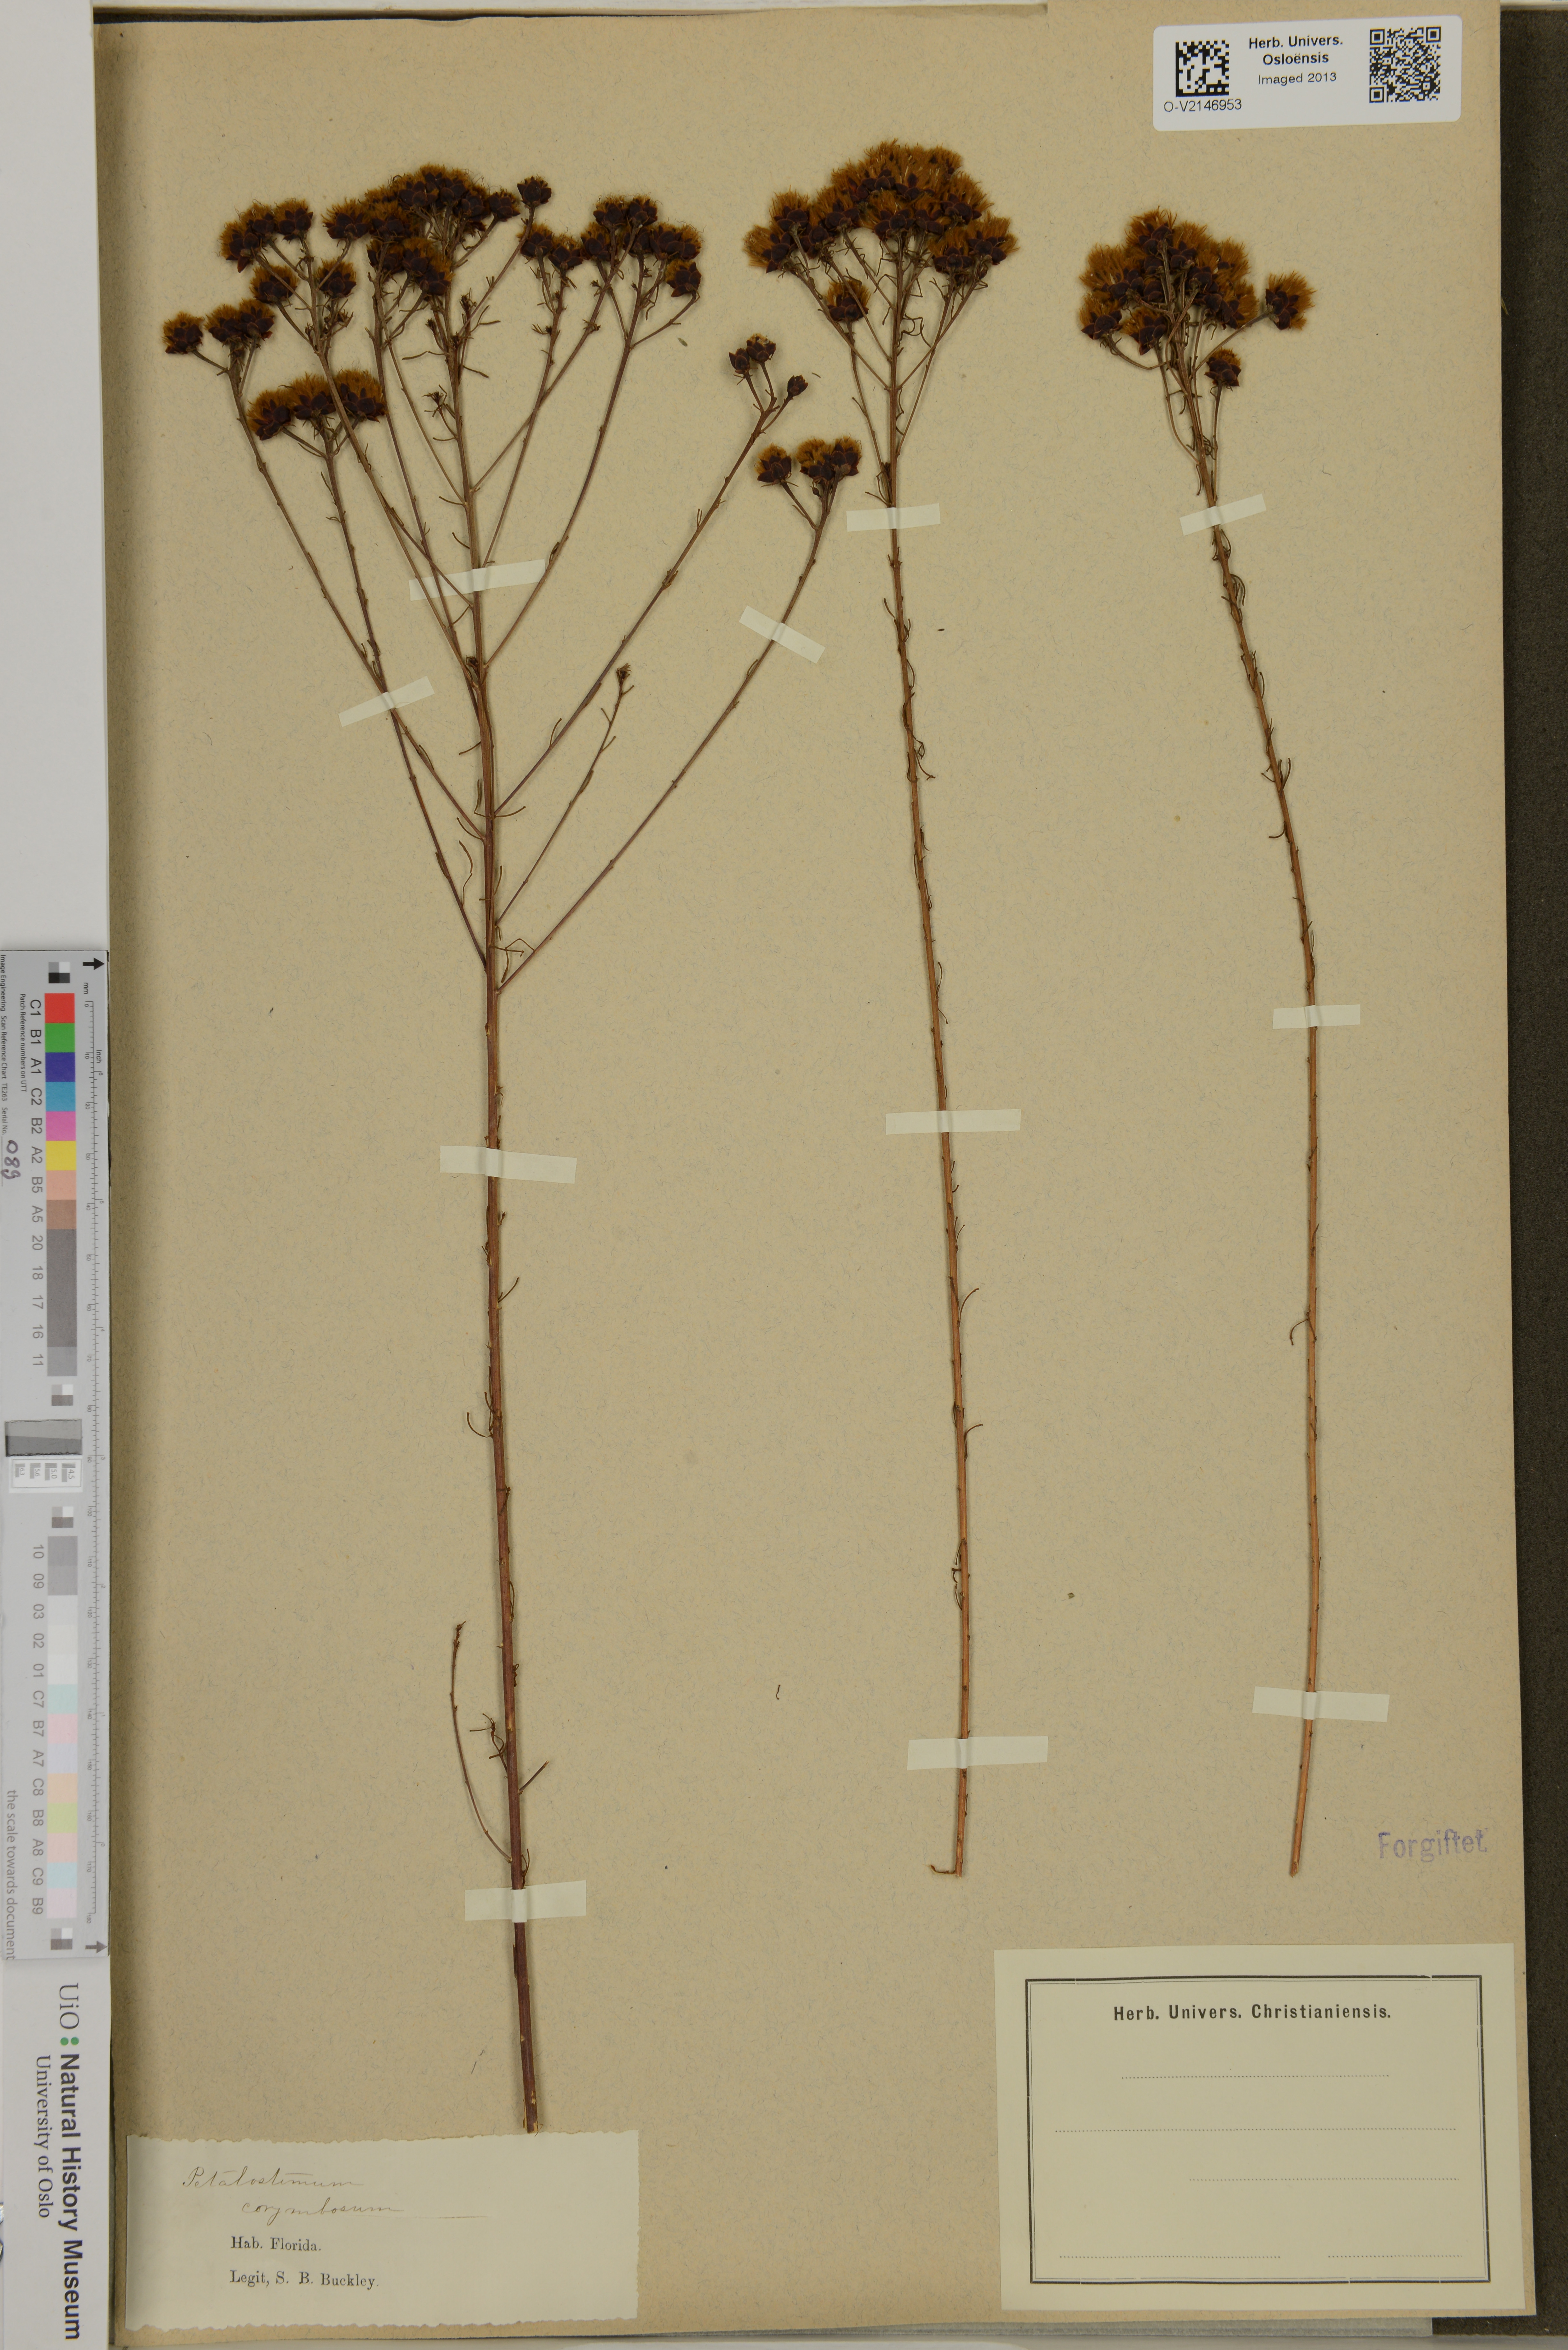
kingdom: Plantae
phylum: Tracheophyta
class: Magnoliopsida
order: Fabales
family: Fabaceae
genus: Dalea
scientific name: Dalea pinnata
